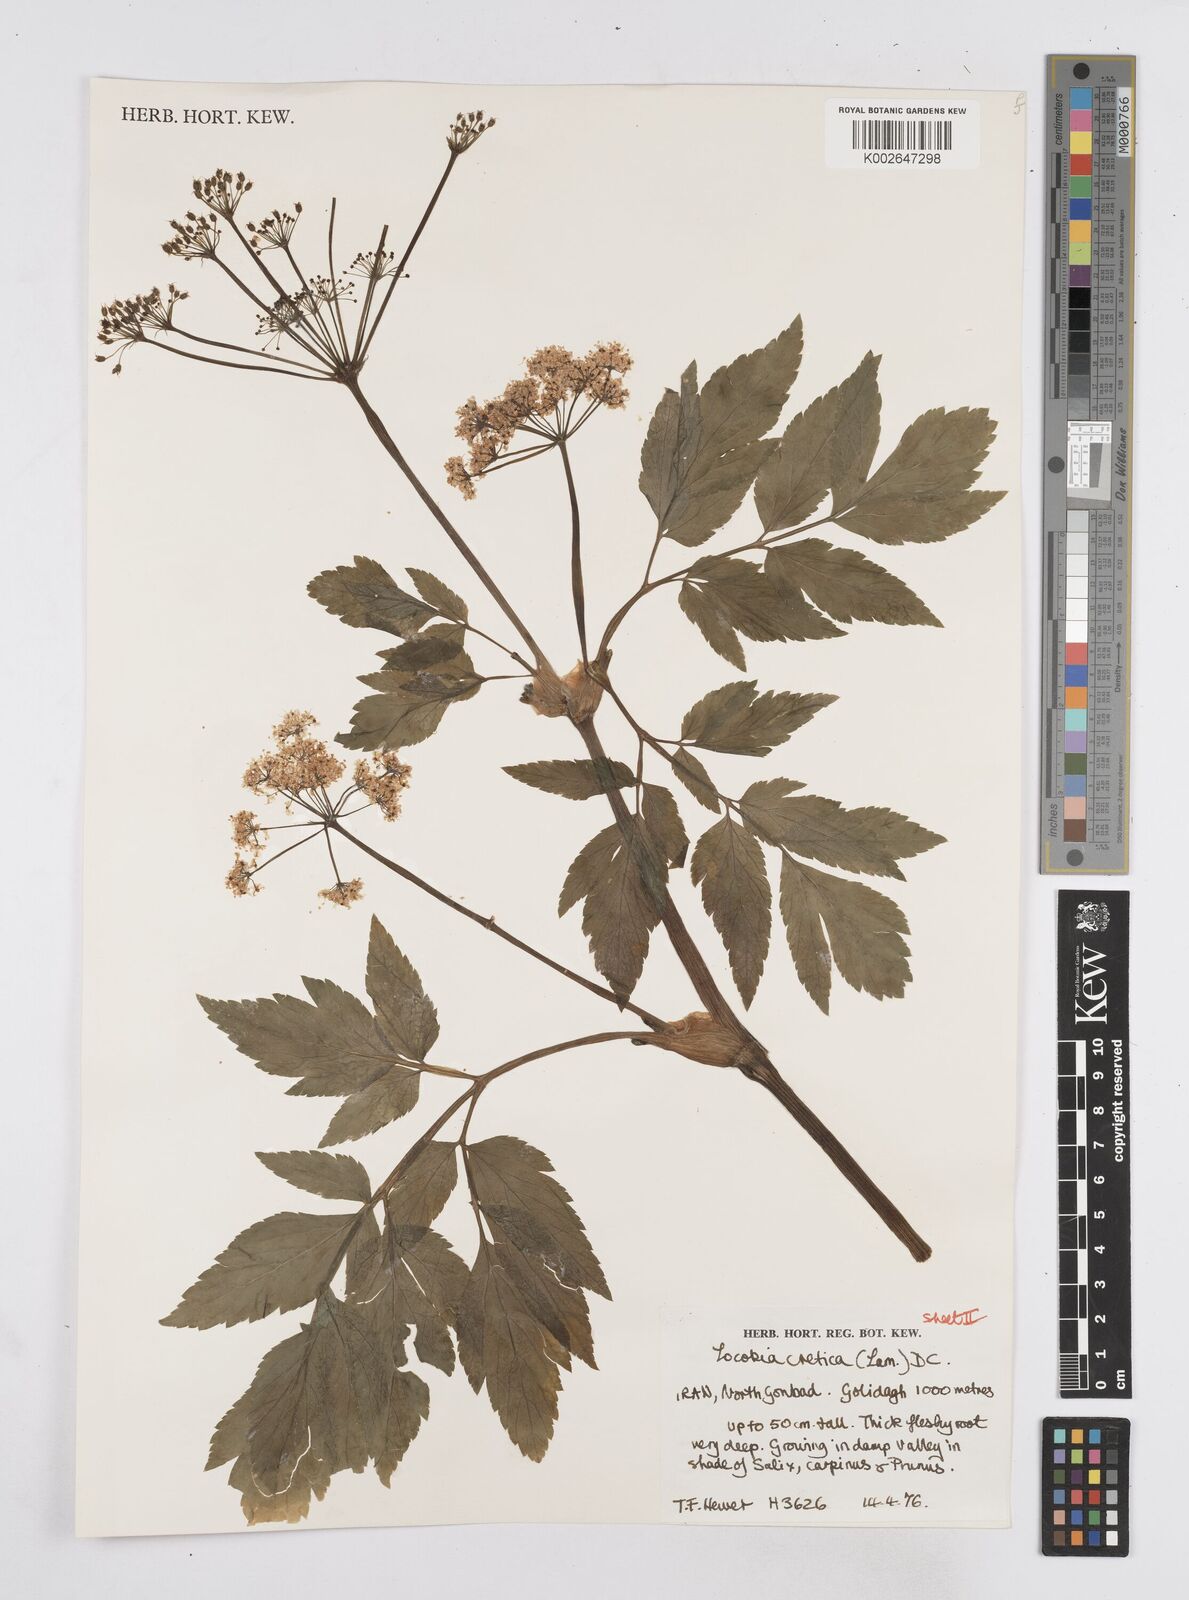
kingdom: Plantae
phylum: Tracheophyta
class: Magnoliopsida
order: Apiales
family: Apiaceae
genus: Lecokia
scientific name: Lecokia cretica
